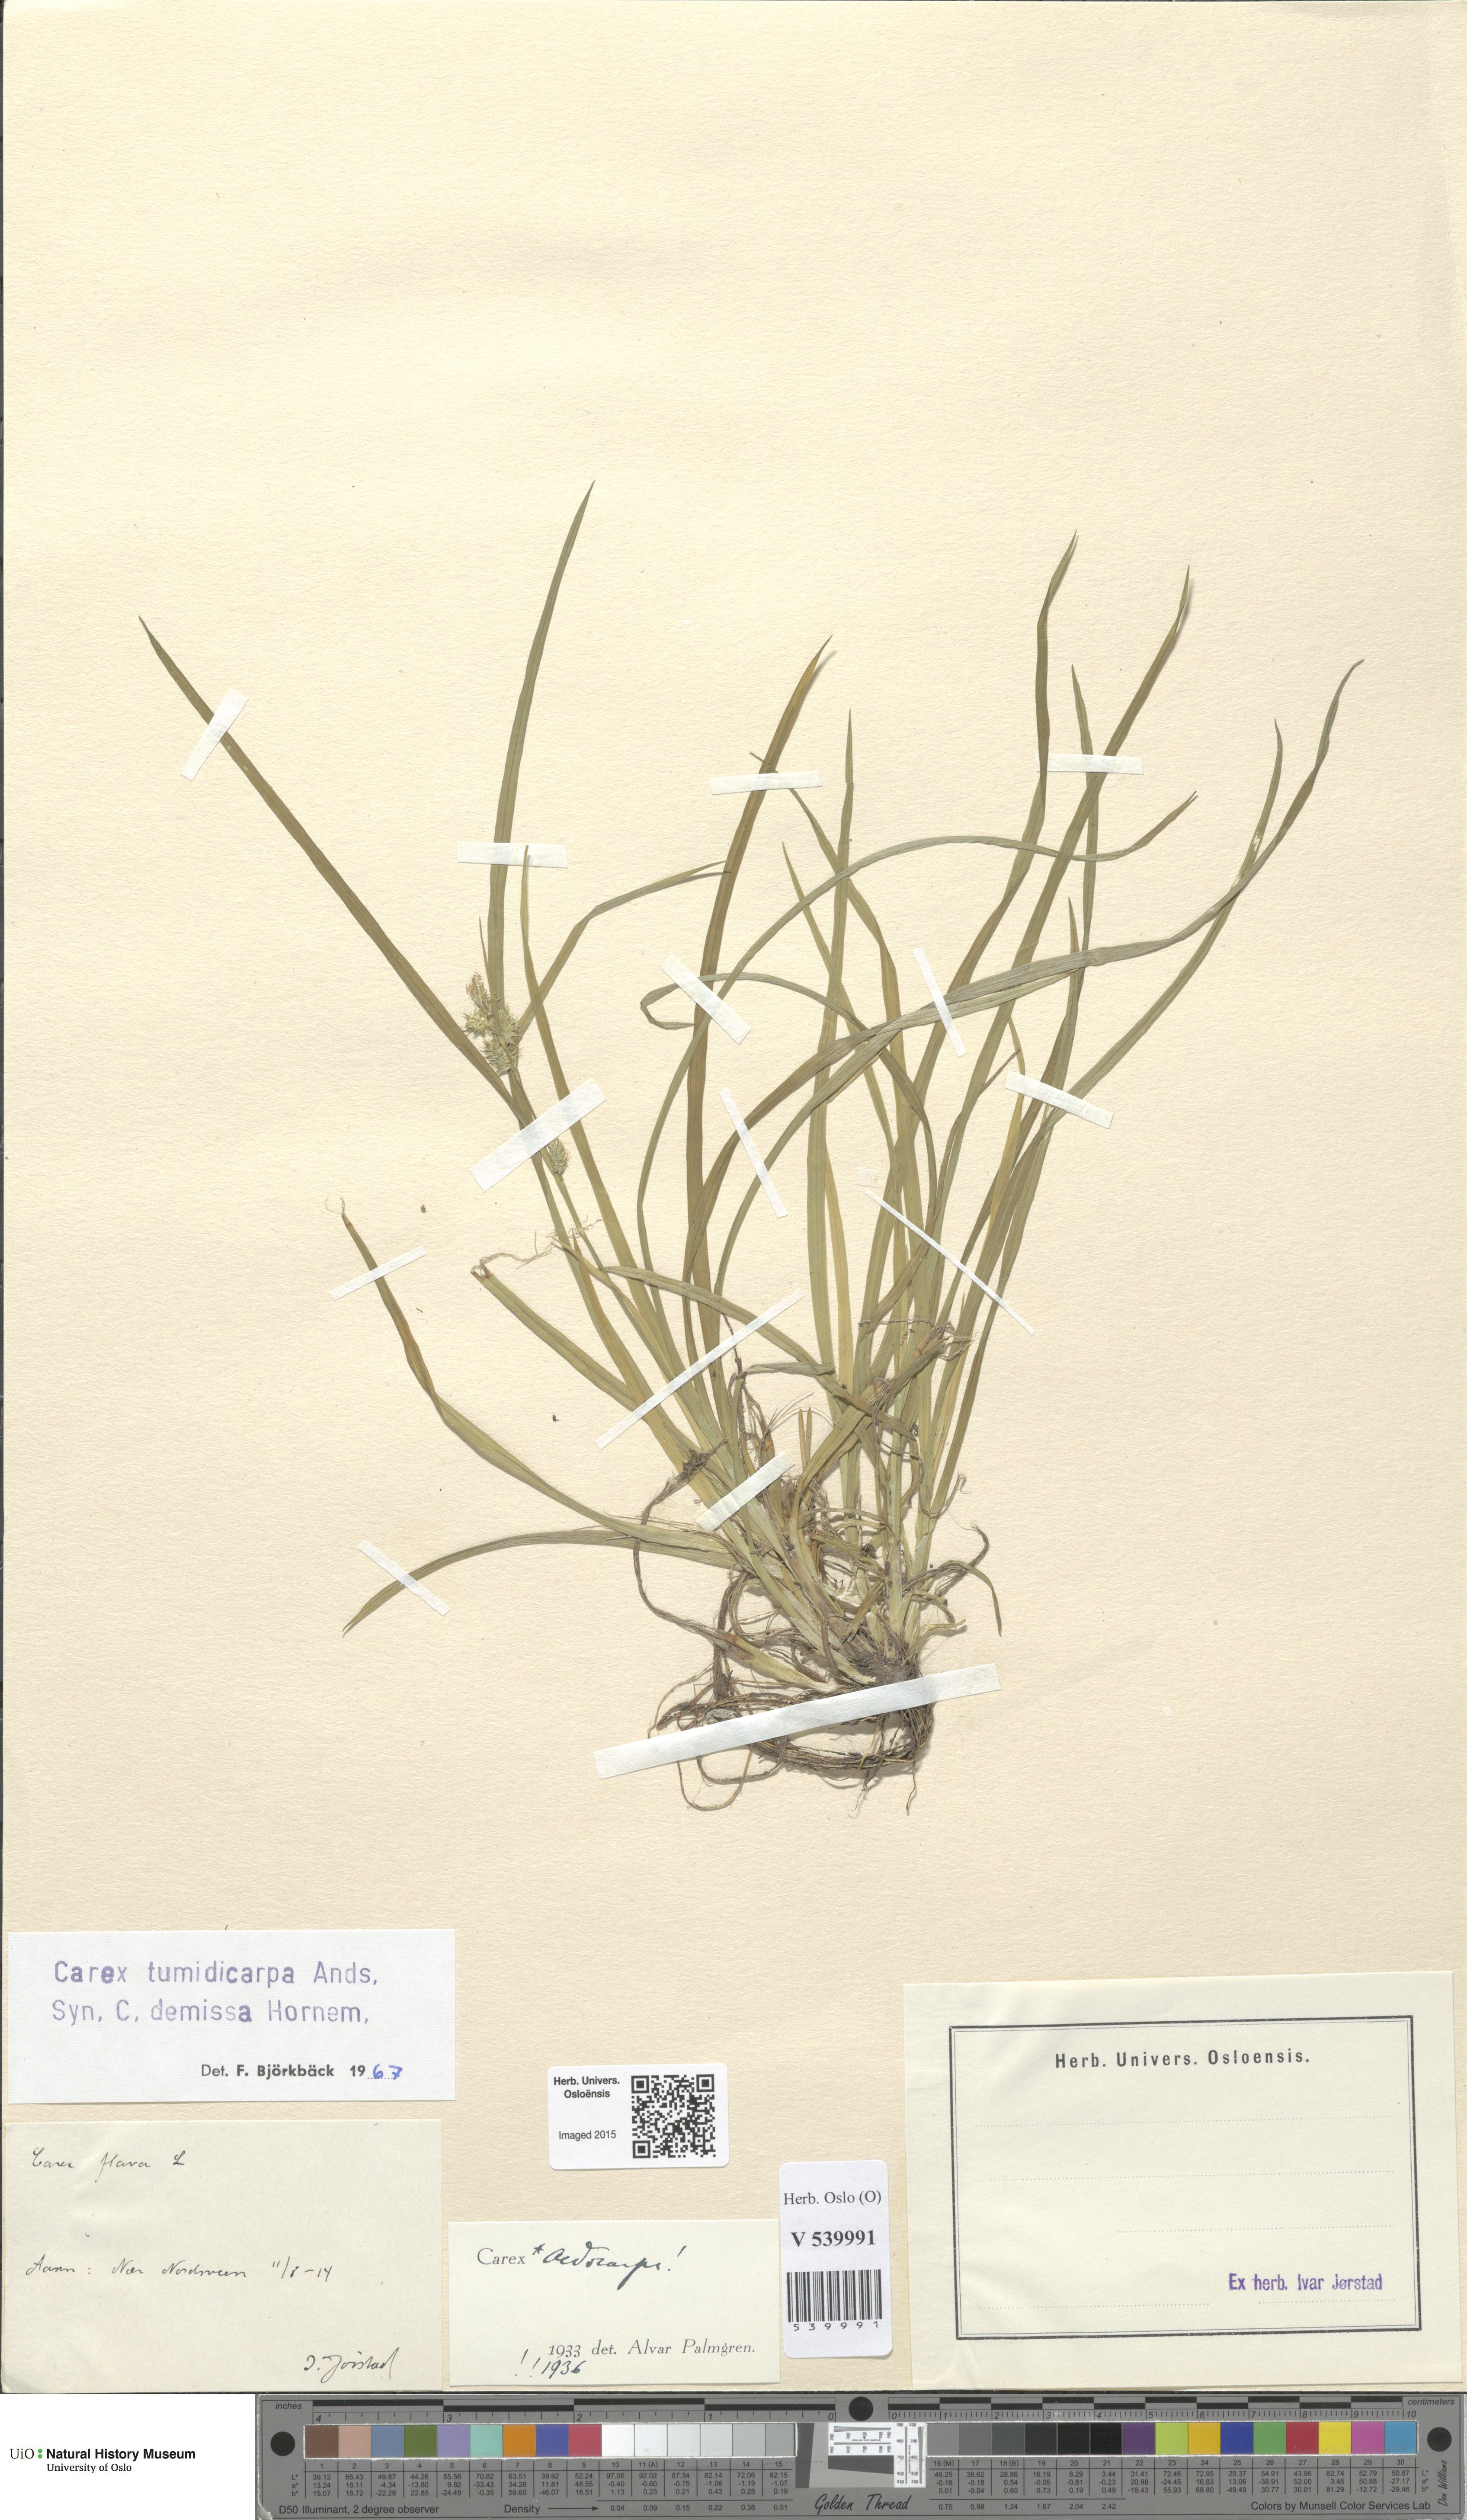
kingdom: Plantae
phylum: Tracheophyta
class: Liliopsida
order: Poales
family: Cyperaceae
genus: Carex
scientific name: Carex demissa
